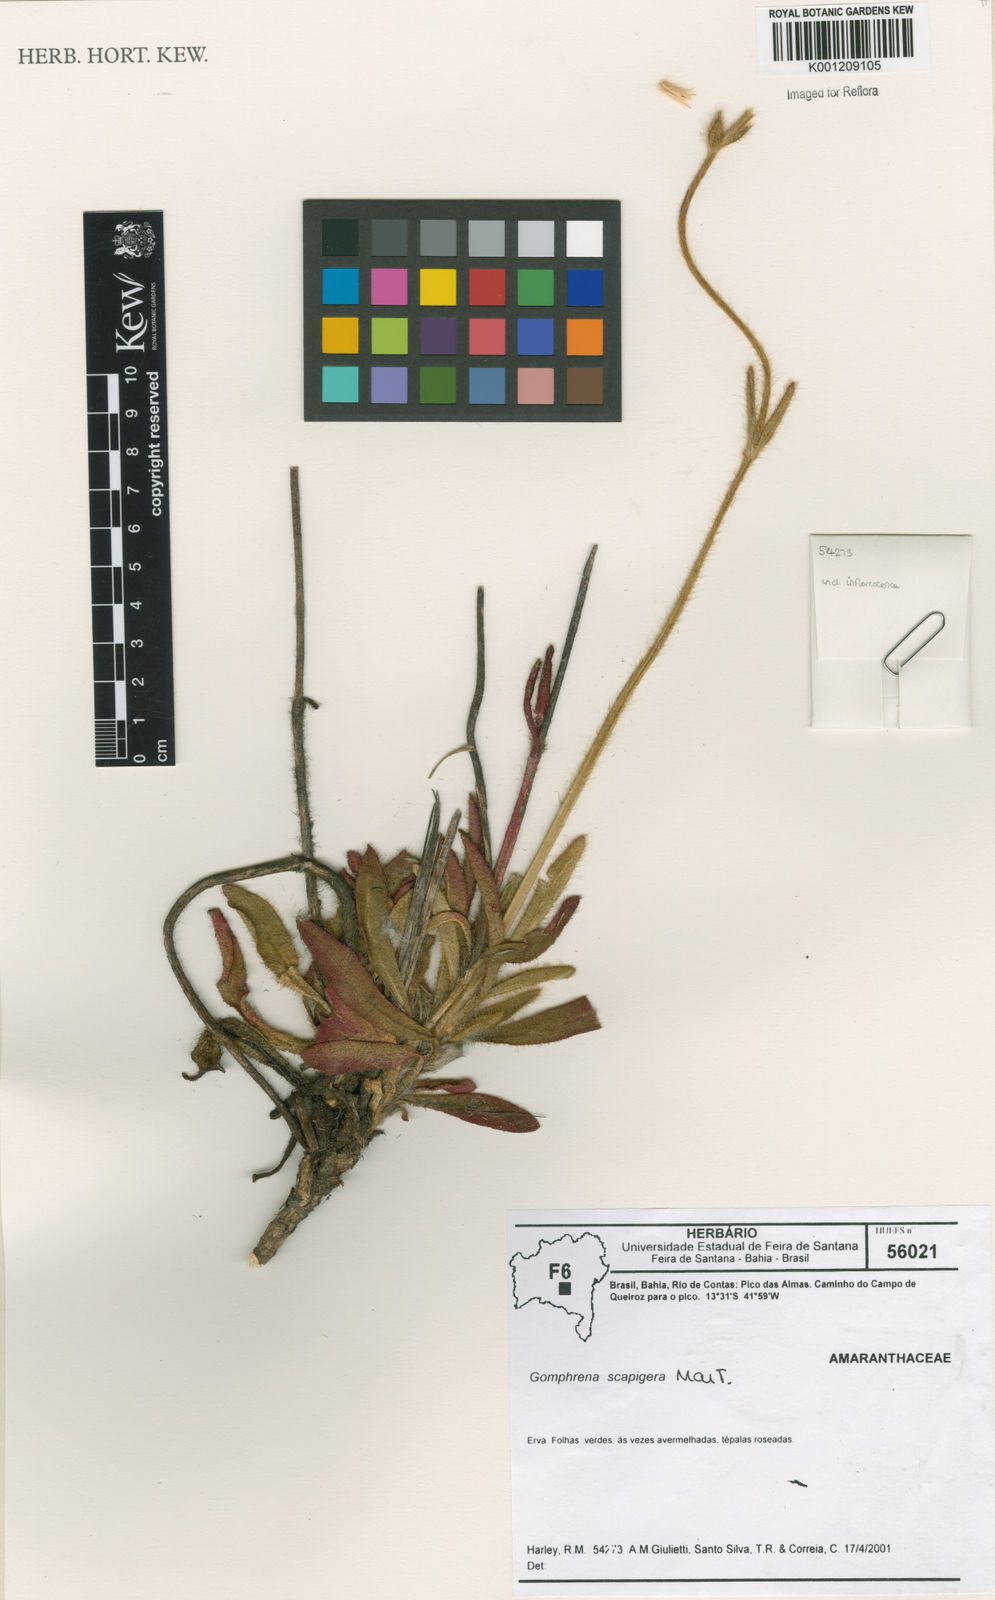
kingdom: Plantae
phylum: Tracheophyta
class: Magnoliopsida
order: Caryophyllales
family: Amaranthaceae
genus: Gomphrena
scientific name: Gomphrena scapigera
